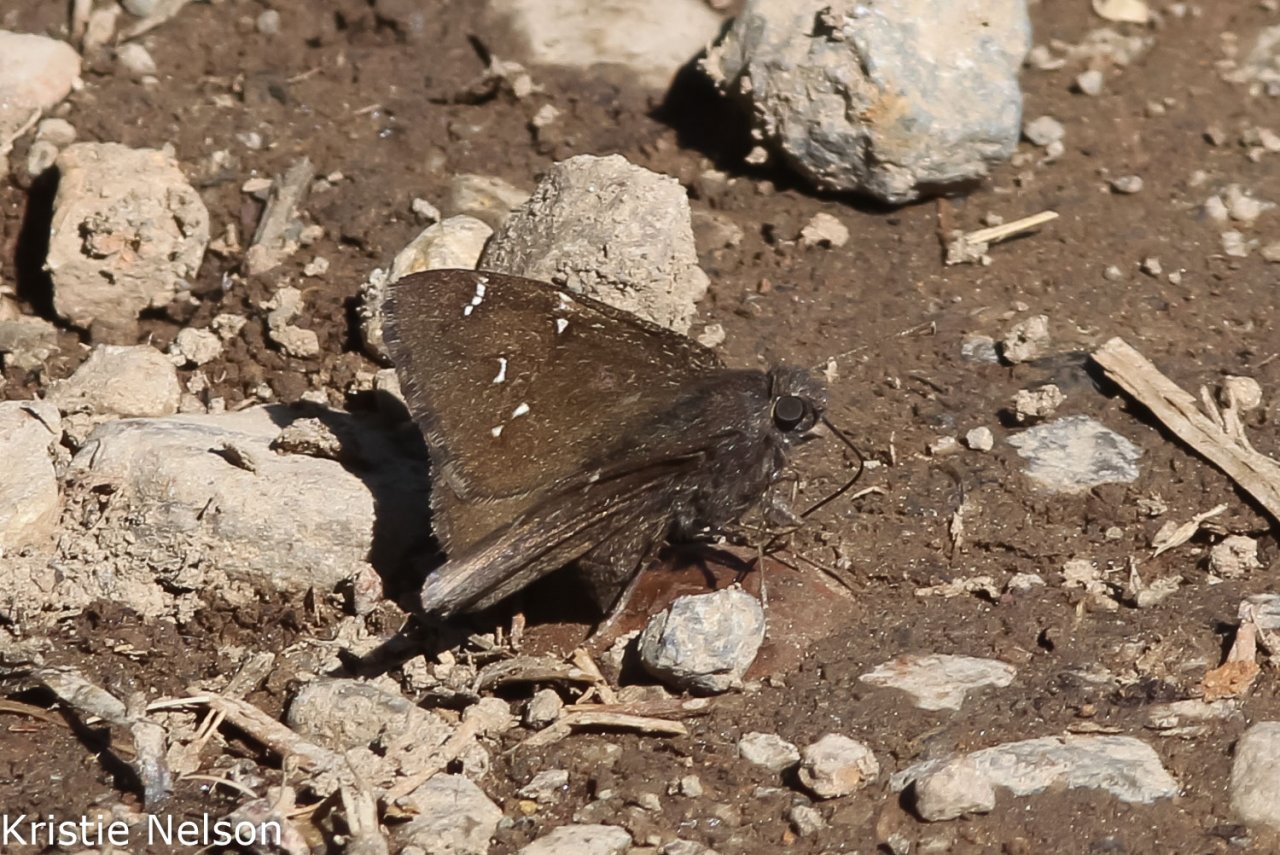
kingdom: Animalia
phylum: Arthropoda
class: Insecta
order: Lepidoptera
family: Hesperiidae
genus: Autochton
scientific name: Autochton
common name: Northern Cloudywing
